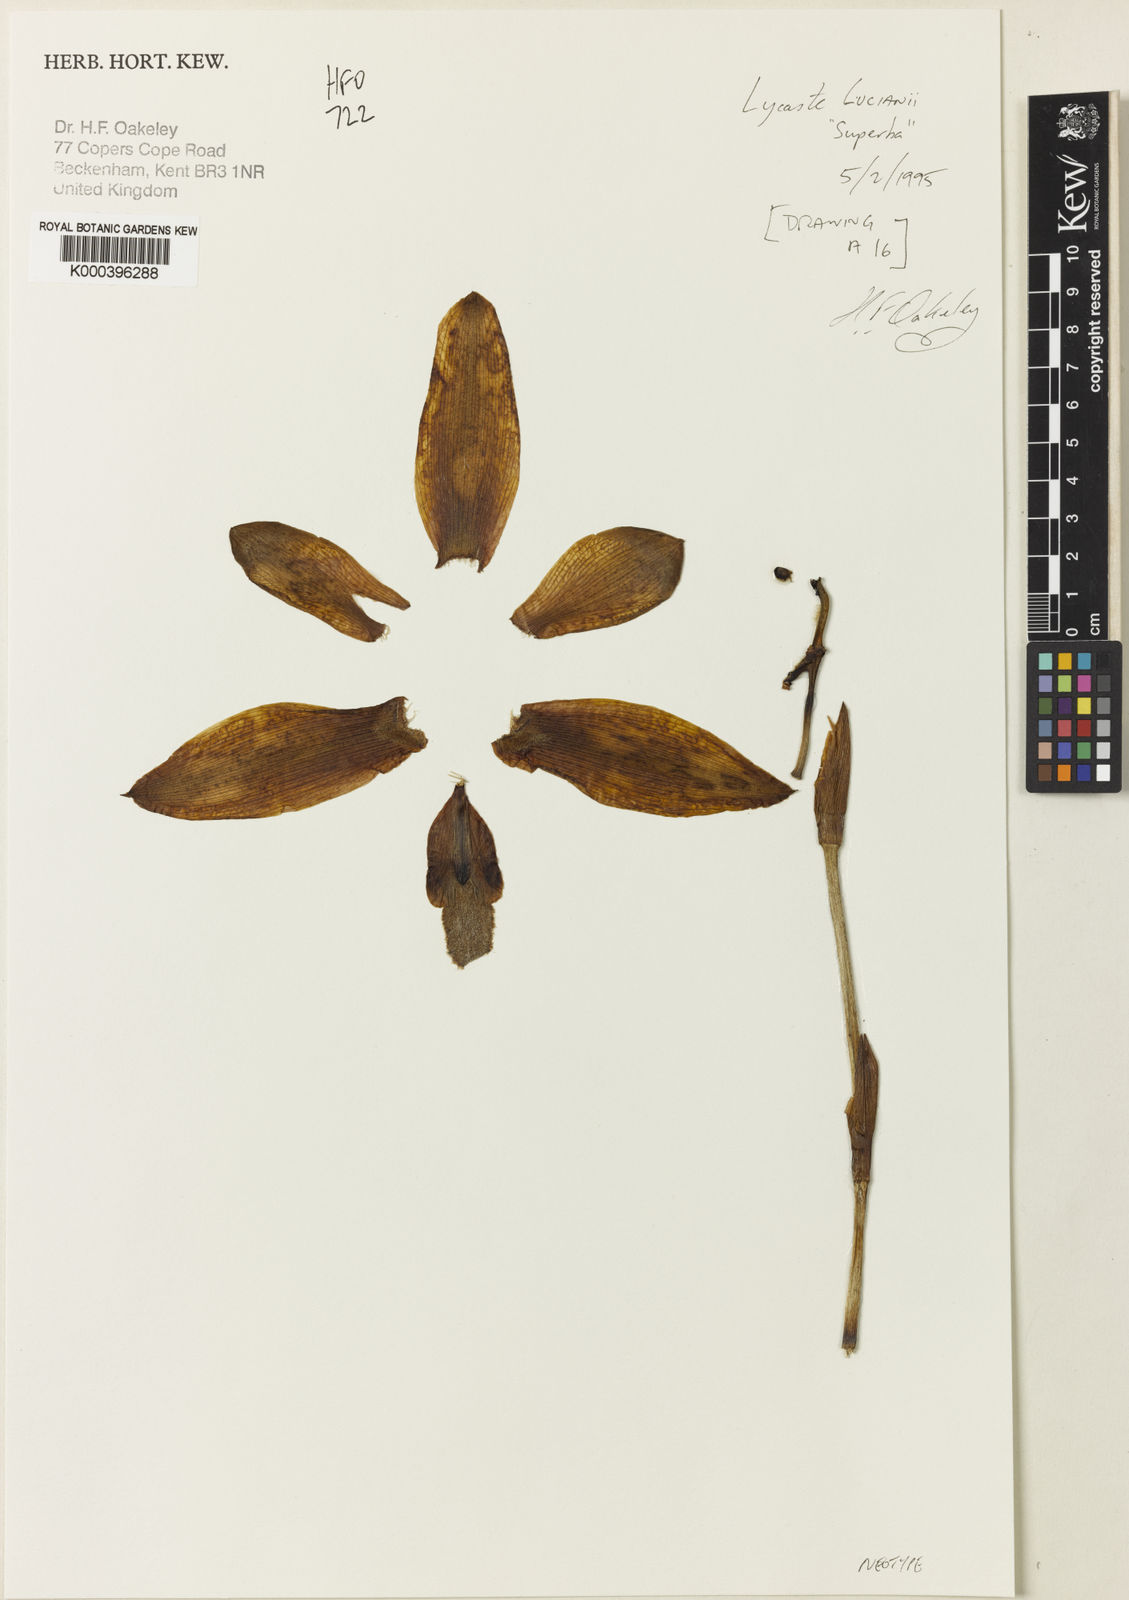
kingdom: Plantae
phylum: Tracheophyta
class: Liliopsida
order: Asparagales
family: Orchidaceae
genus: Lycaste
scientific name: Lycaste lucianiana
